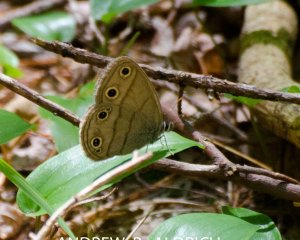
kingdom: Animalia
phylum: Arthropoda
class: Insecta
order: Lepidoptera
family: Nymphalidae
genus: Euptychia
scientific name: Euptychia cymela
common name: Little Wood Satyr
